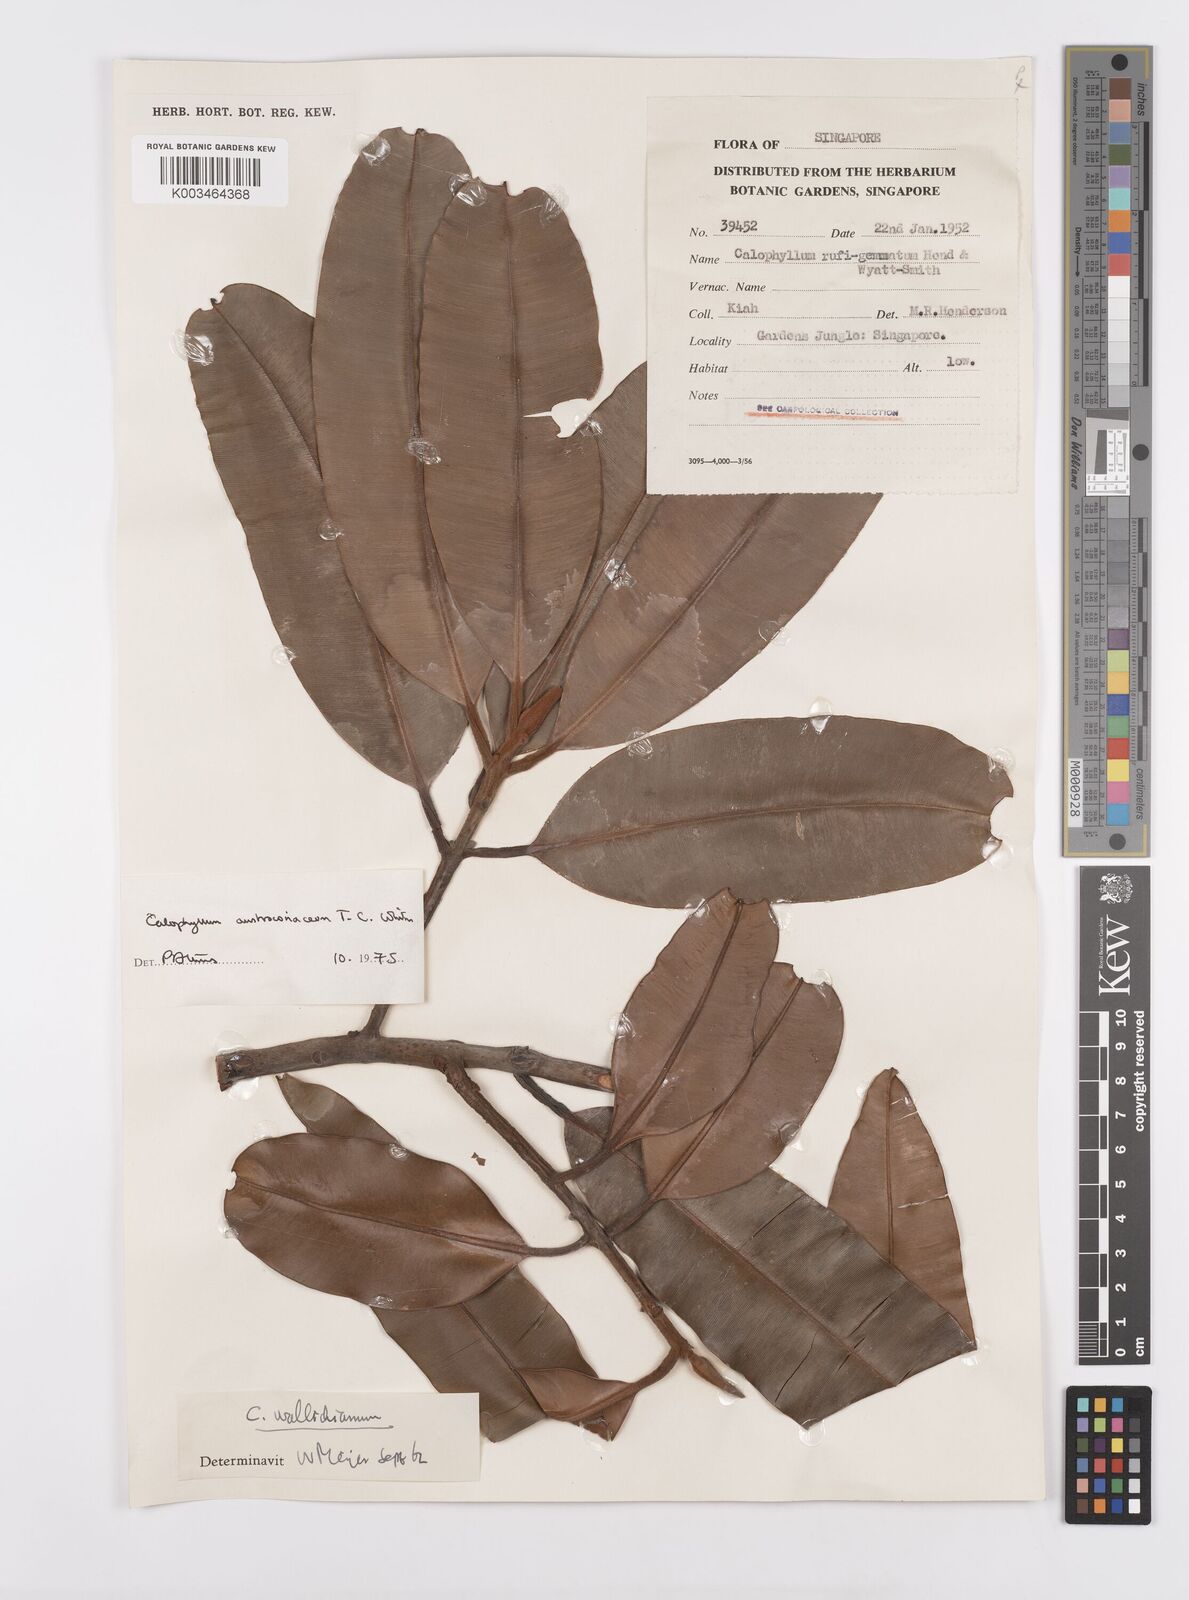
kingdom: Plantae
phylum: Tracheophyta
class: Magnoliopsida
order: Malpighiales
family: Calophyllaceae
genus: Calophyllum
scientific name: Calophyllum lanigerum
